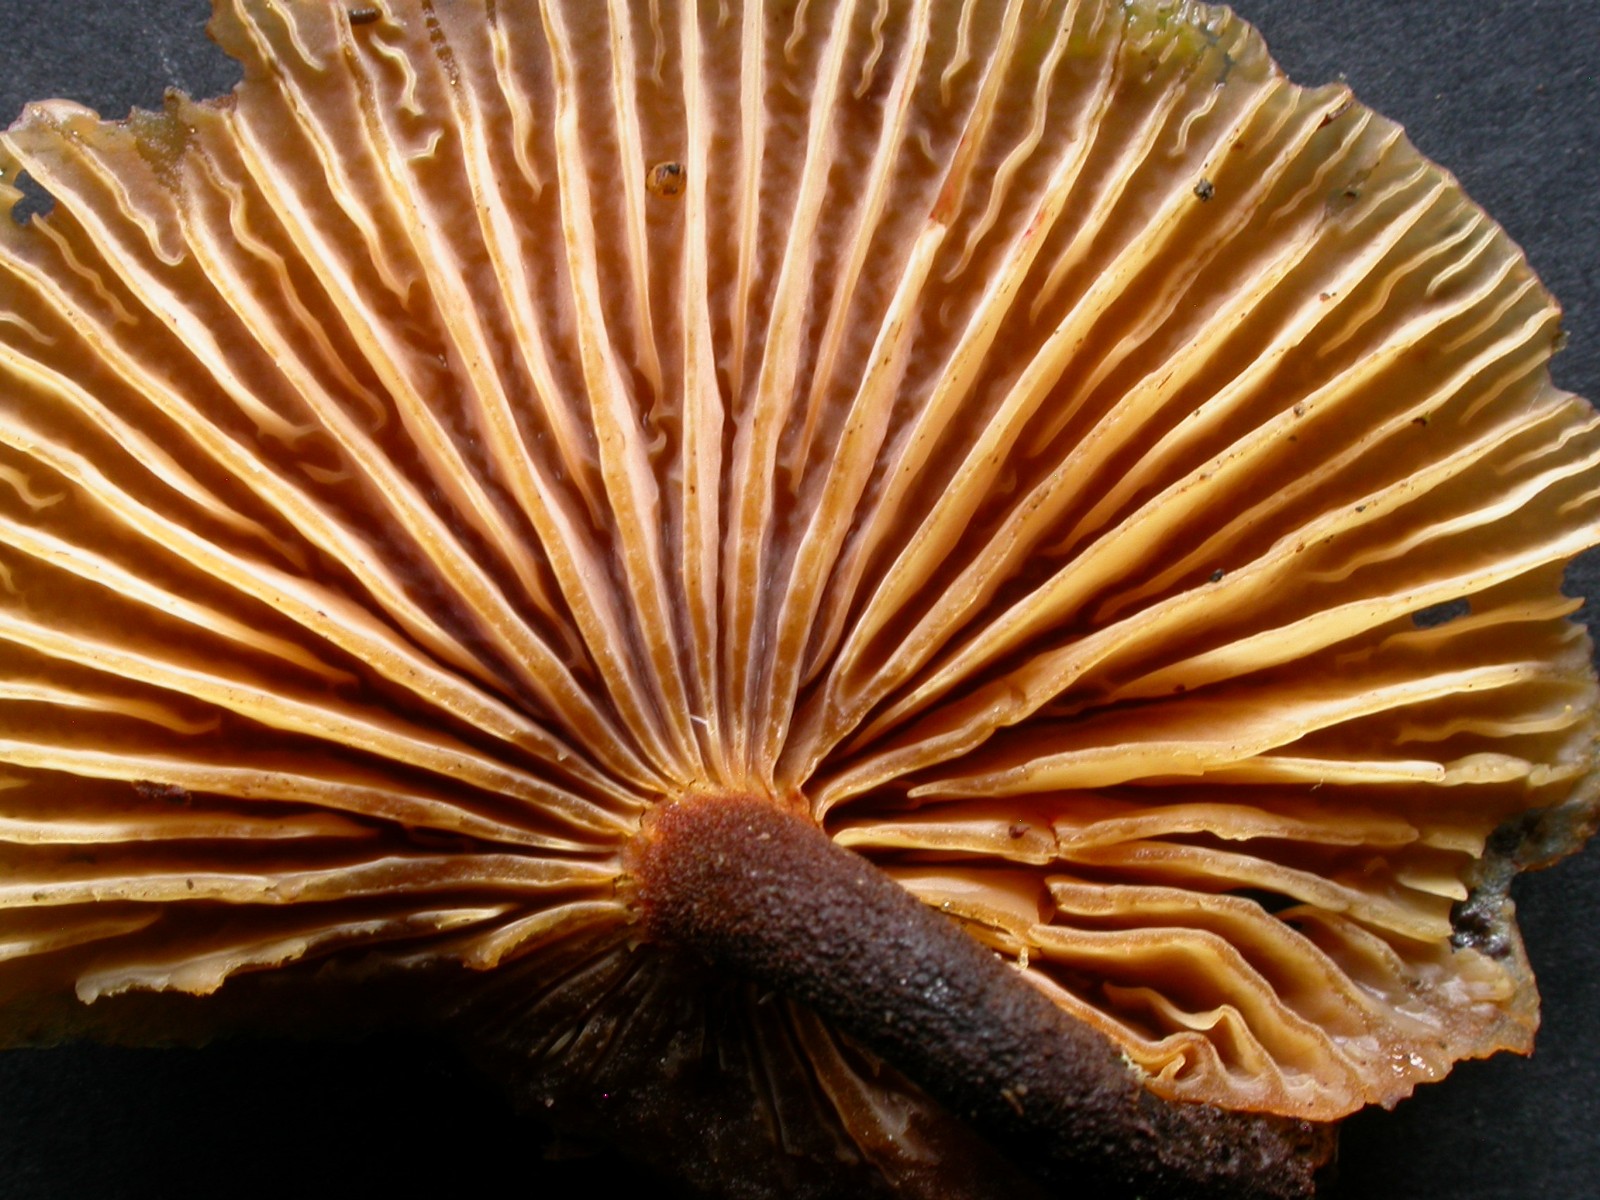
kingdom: Fungi
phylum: Basidiomycota
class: Agaricomycetes
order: Agaricales
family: Physalacriaceae
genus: Flammulina
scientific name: Flammulina elastica
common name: pile-fløjlsfod
